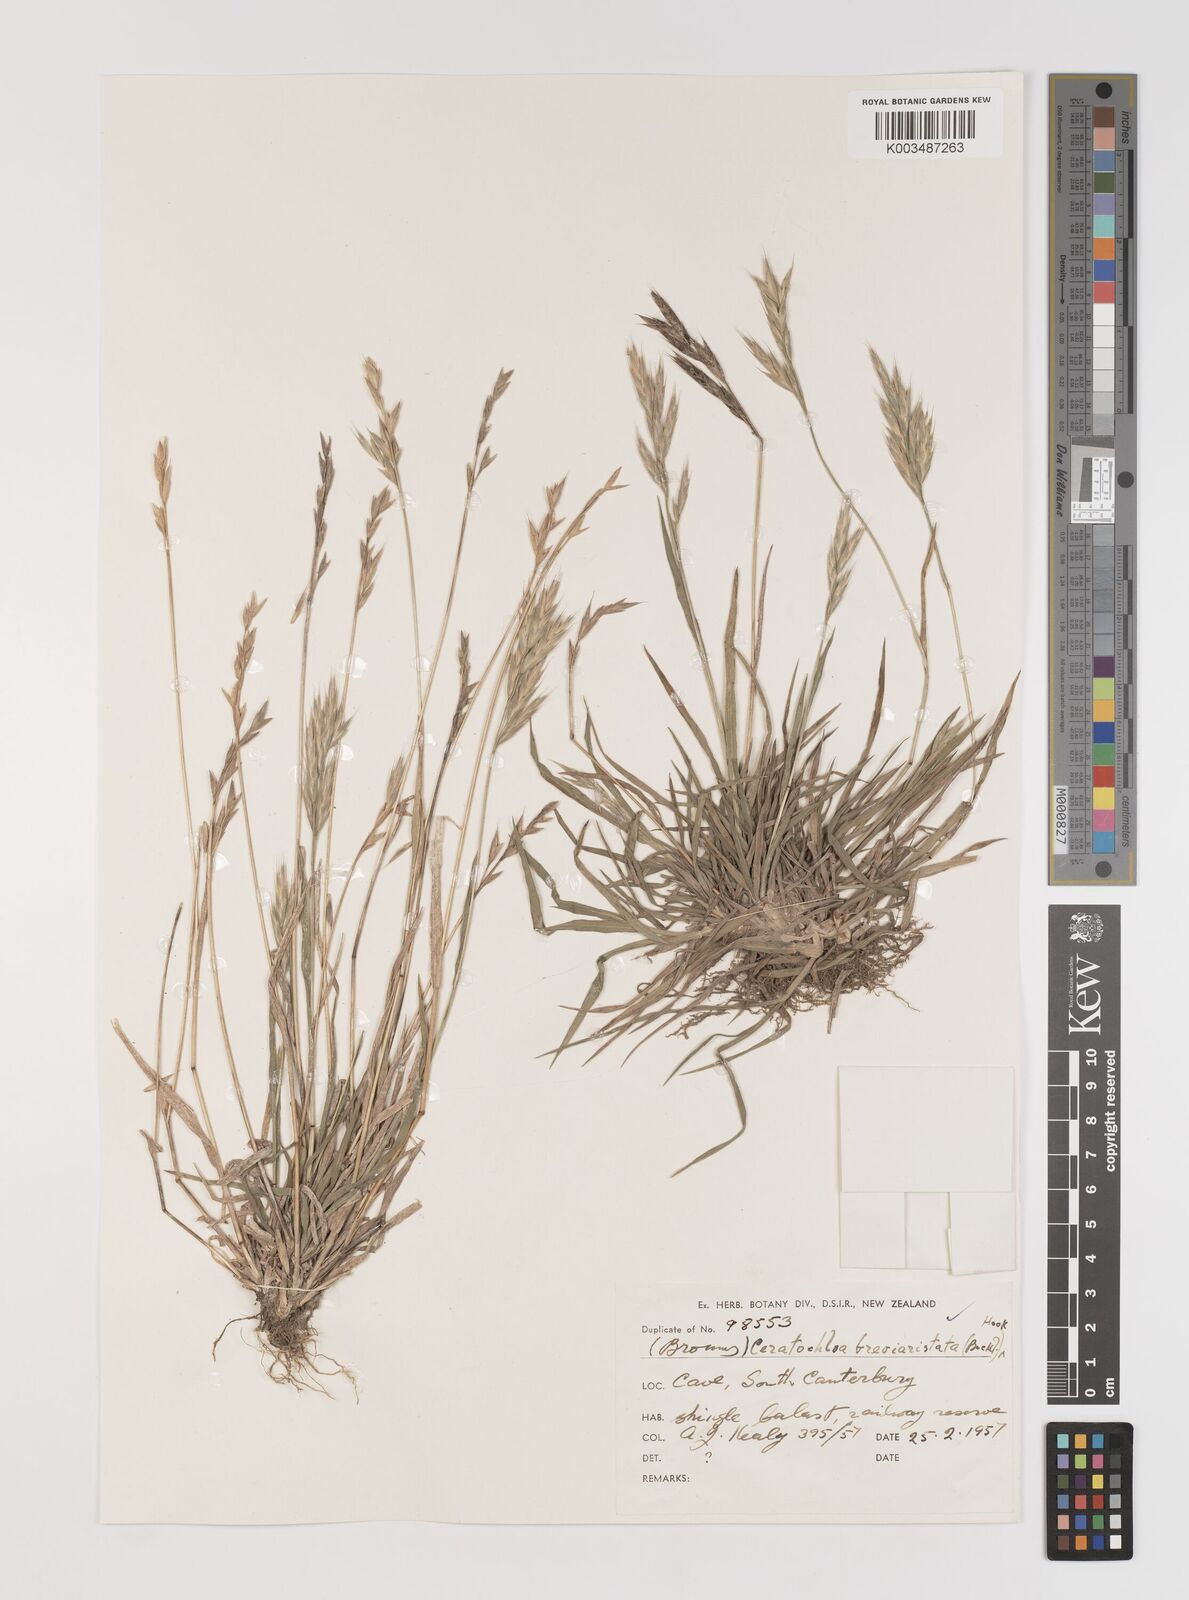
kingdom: Plantae
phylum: Tracheophyta
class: Liliopsida
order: Poales
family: Poaceae
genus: Bromus
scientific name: Bromus marginatus
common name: Western brome
